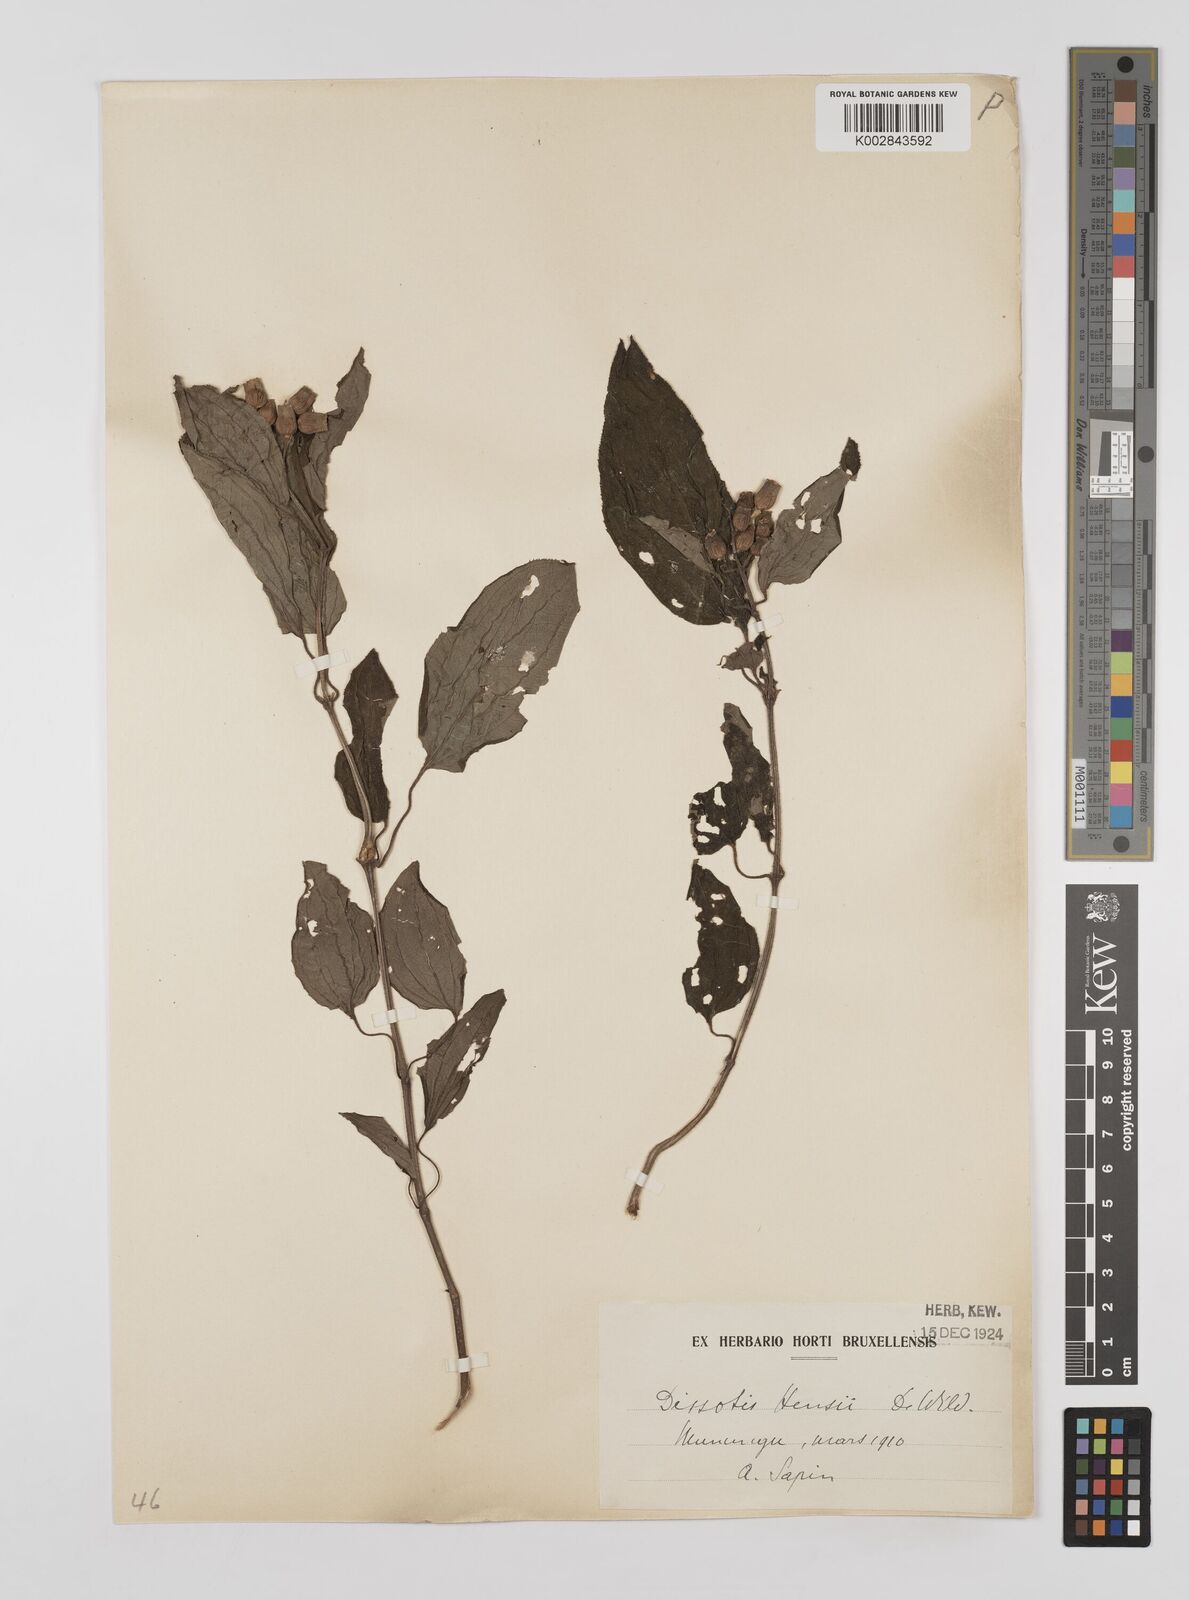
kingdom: Plantae
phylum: Tracheophyta
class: Magnoliopsida
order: Myrtales
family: Melastomataceae
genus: Dupineta
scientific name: Dupineta hensii
